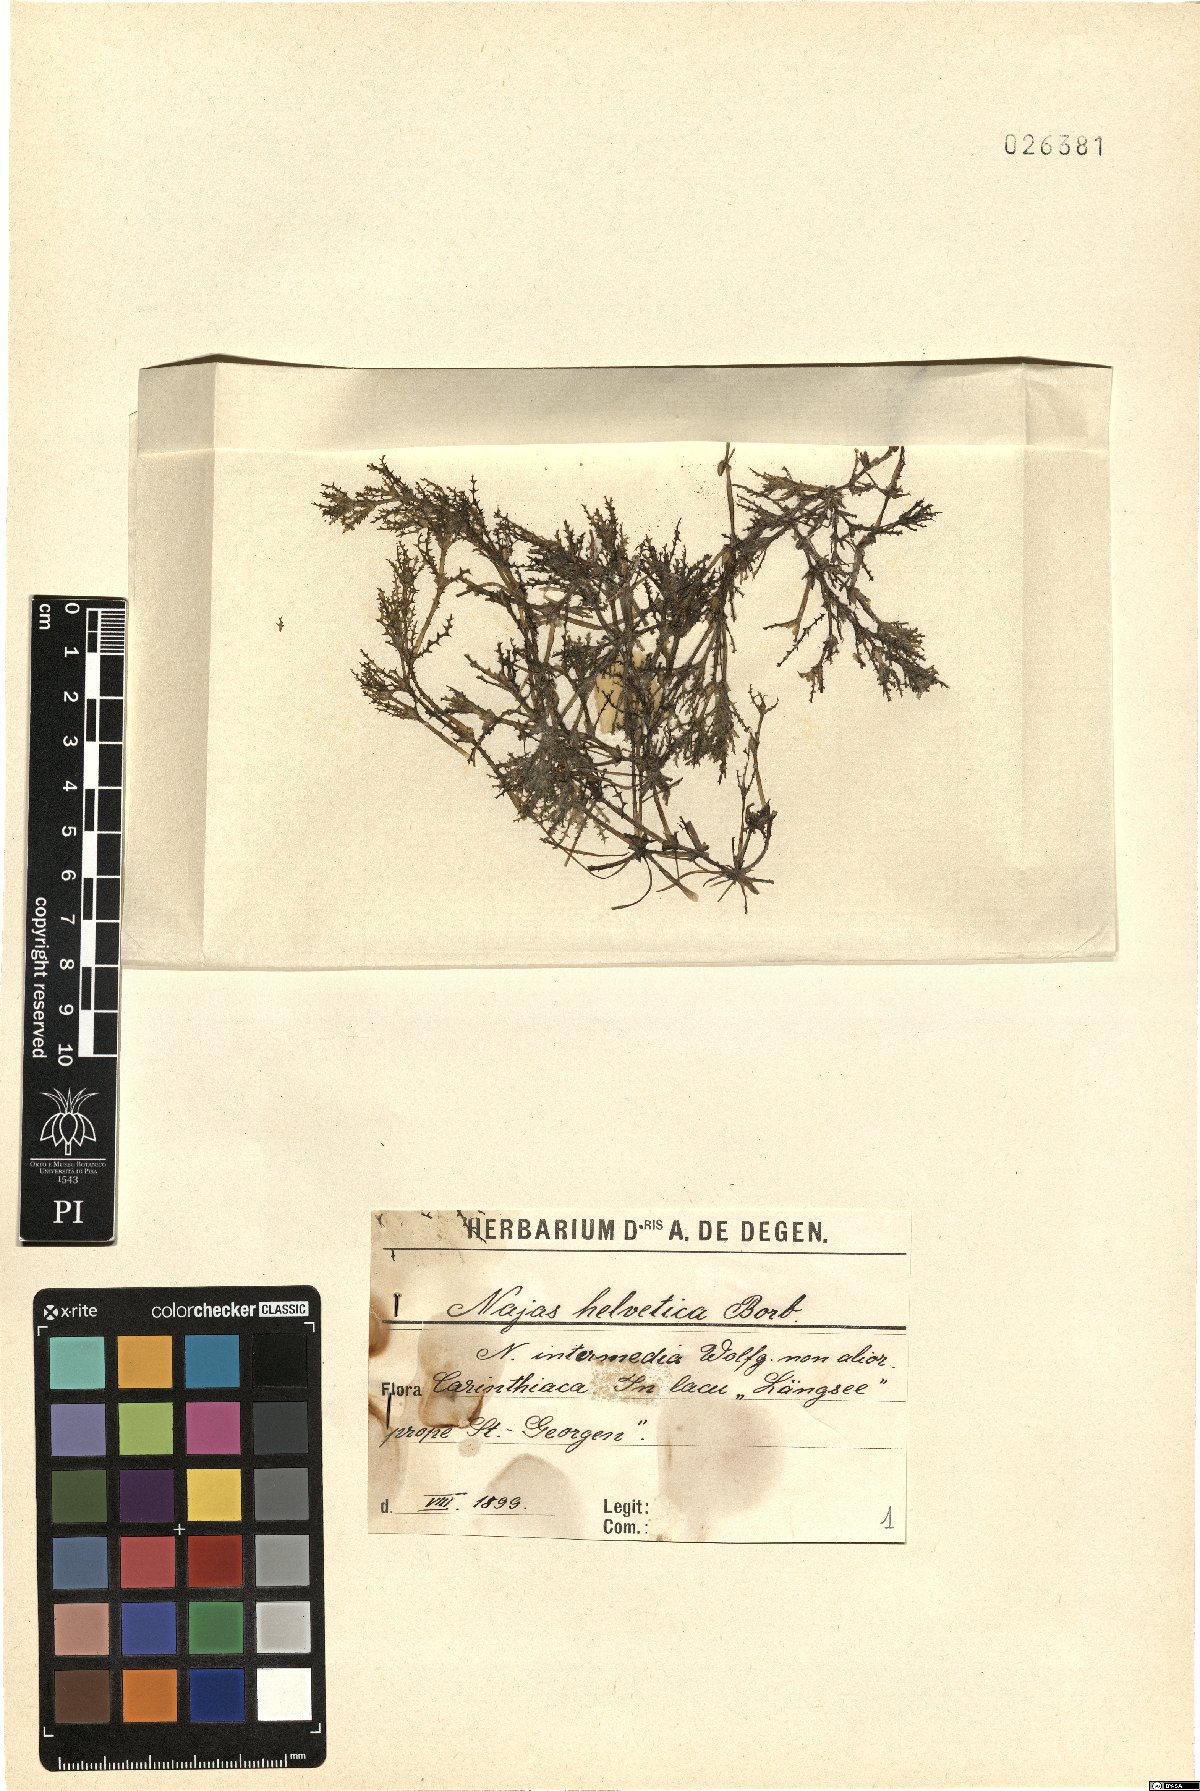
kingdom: Plantae
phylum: Tracheophyta
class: Liliopsida
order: Alismatales
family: Hydrocharitaceae
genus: Najas
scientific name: Najas marina
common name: Holly-leaved naiad
